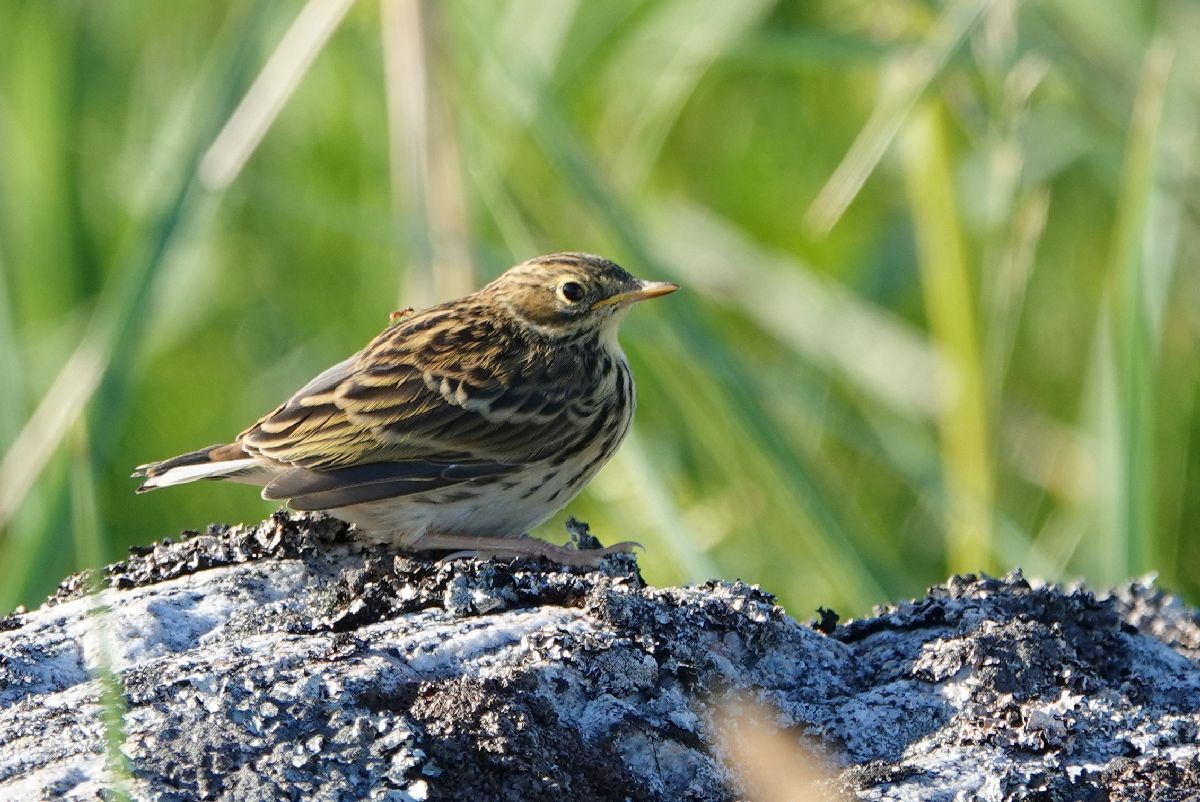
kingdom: Animalia
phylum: Chordata
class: Aves
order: Passeriformes
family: Motacillidae
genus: Anthus
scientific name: Anthus pratensis
